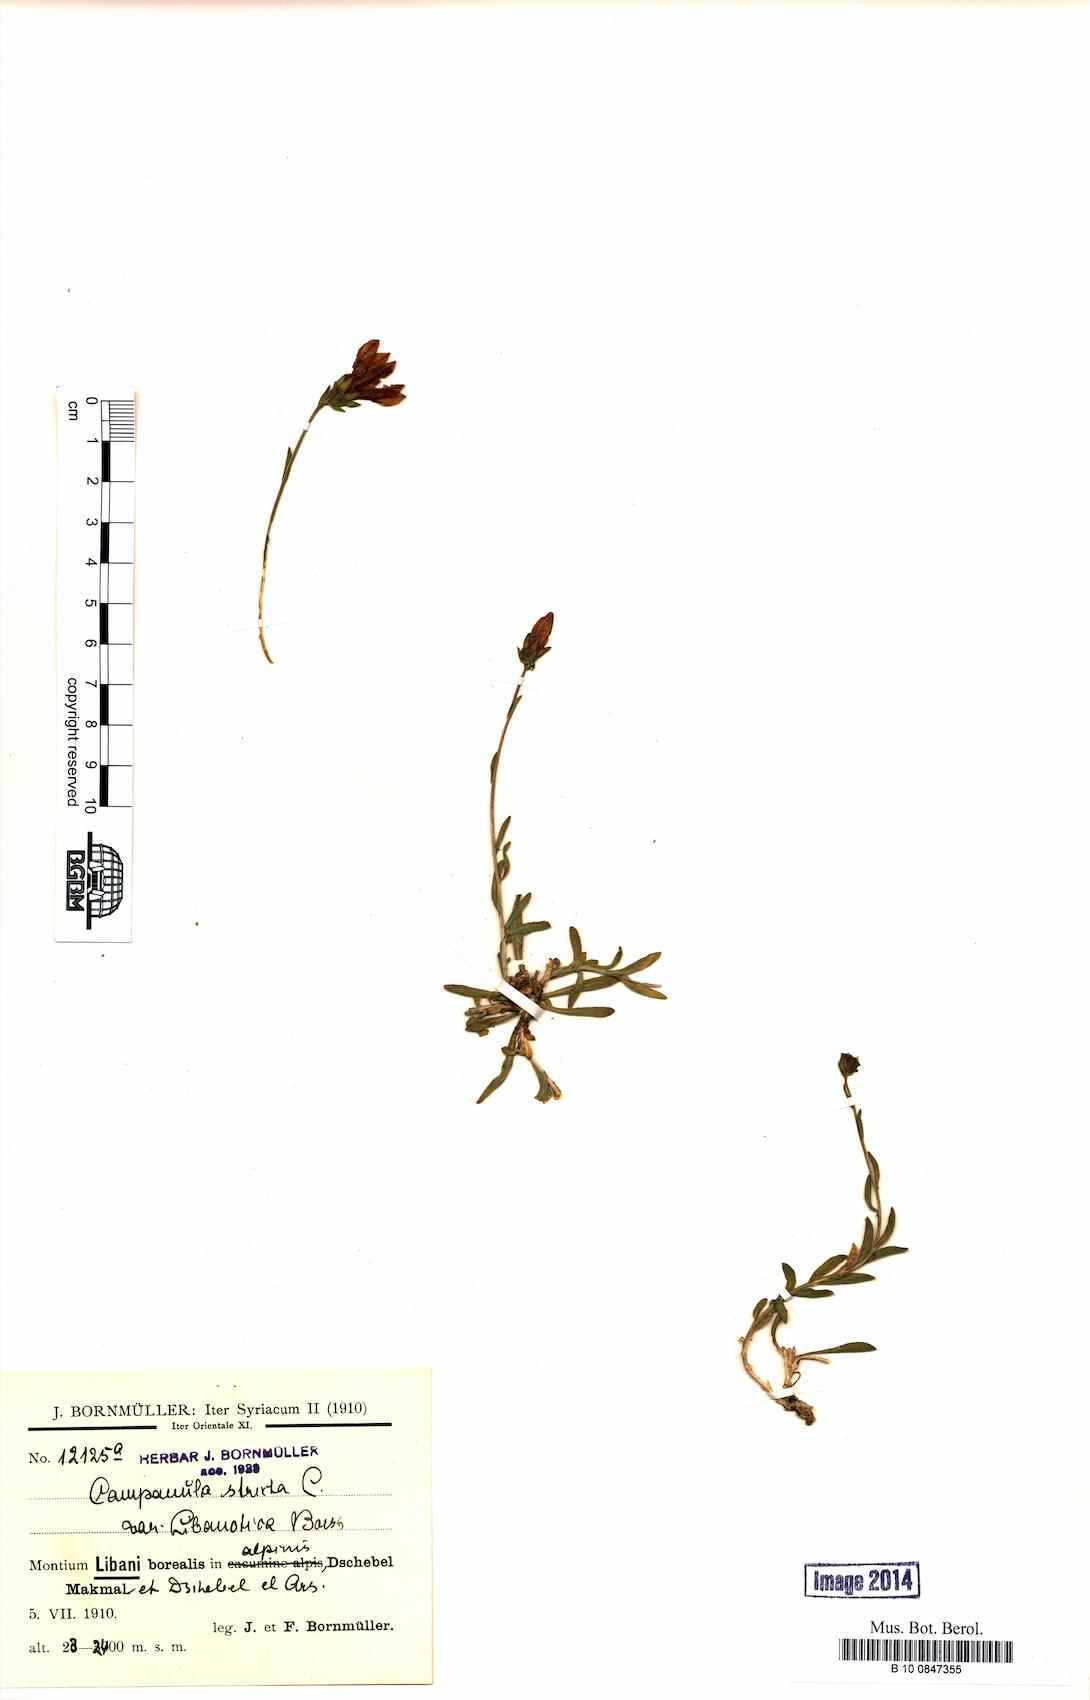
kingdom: Plantae
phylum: Tracheophyta
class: Magnoliopsida
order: Asterales
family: Campanulaceae
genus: Campanula
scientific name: Campanula stricta
